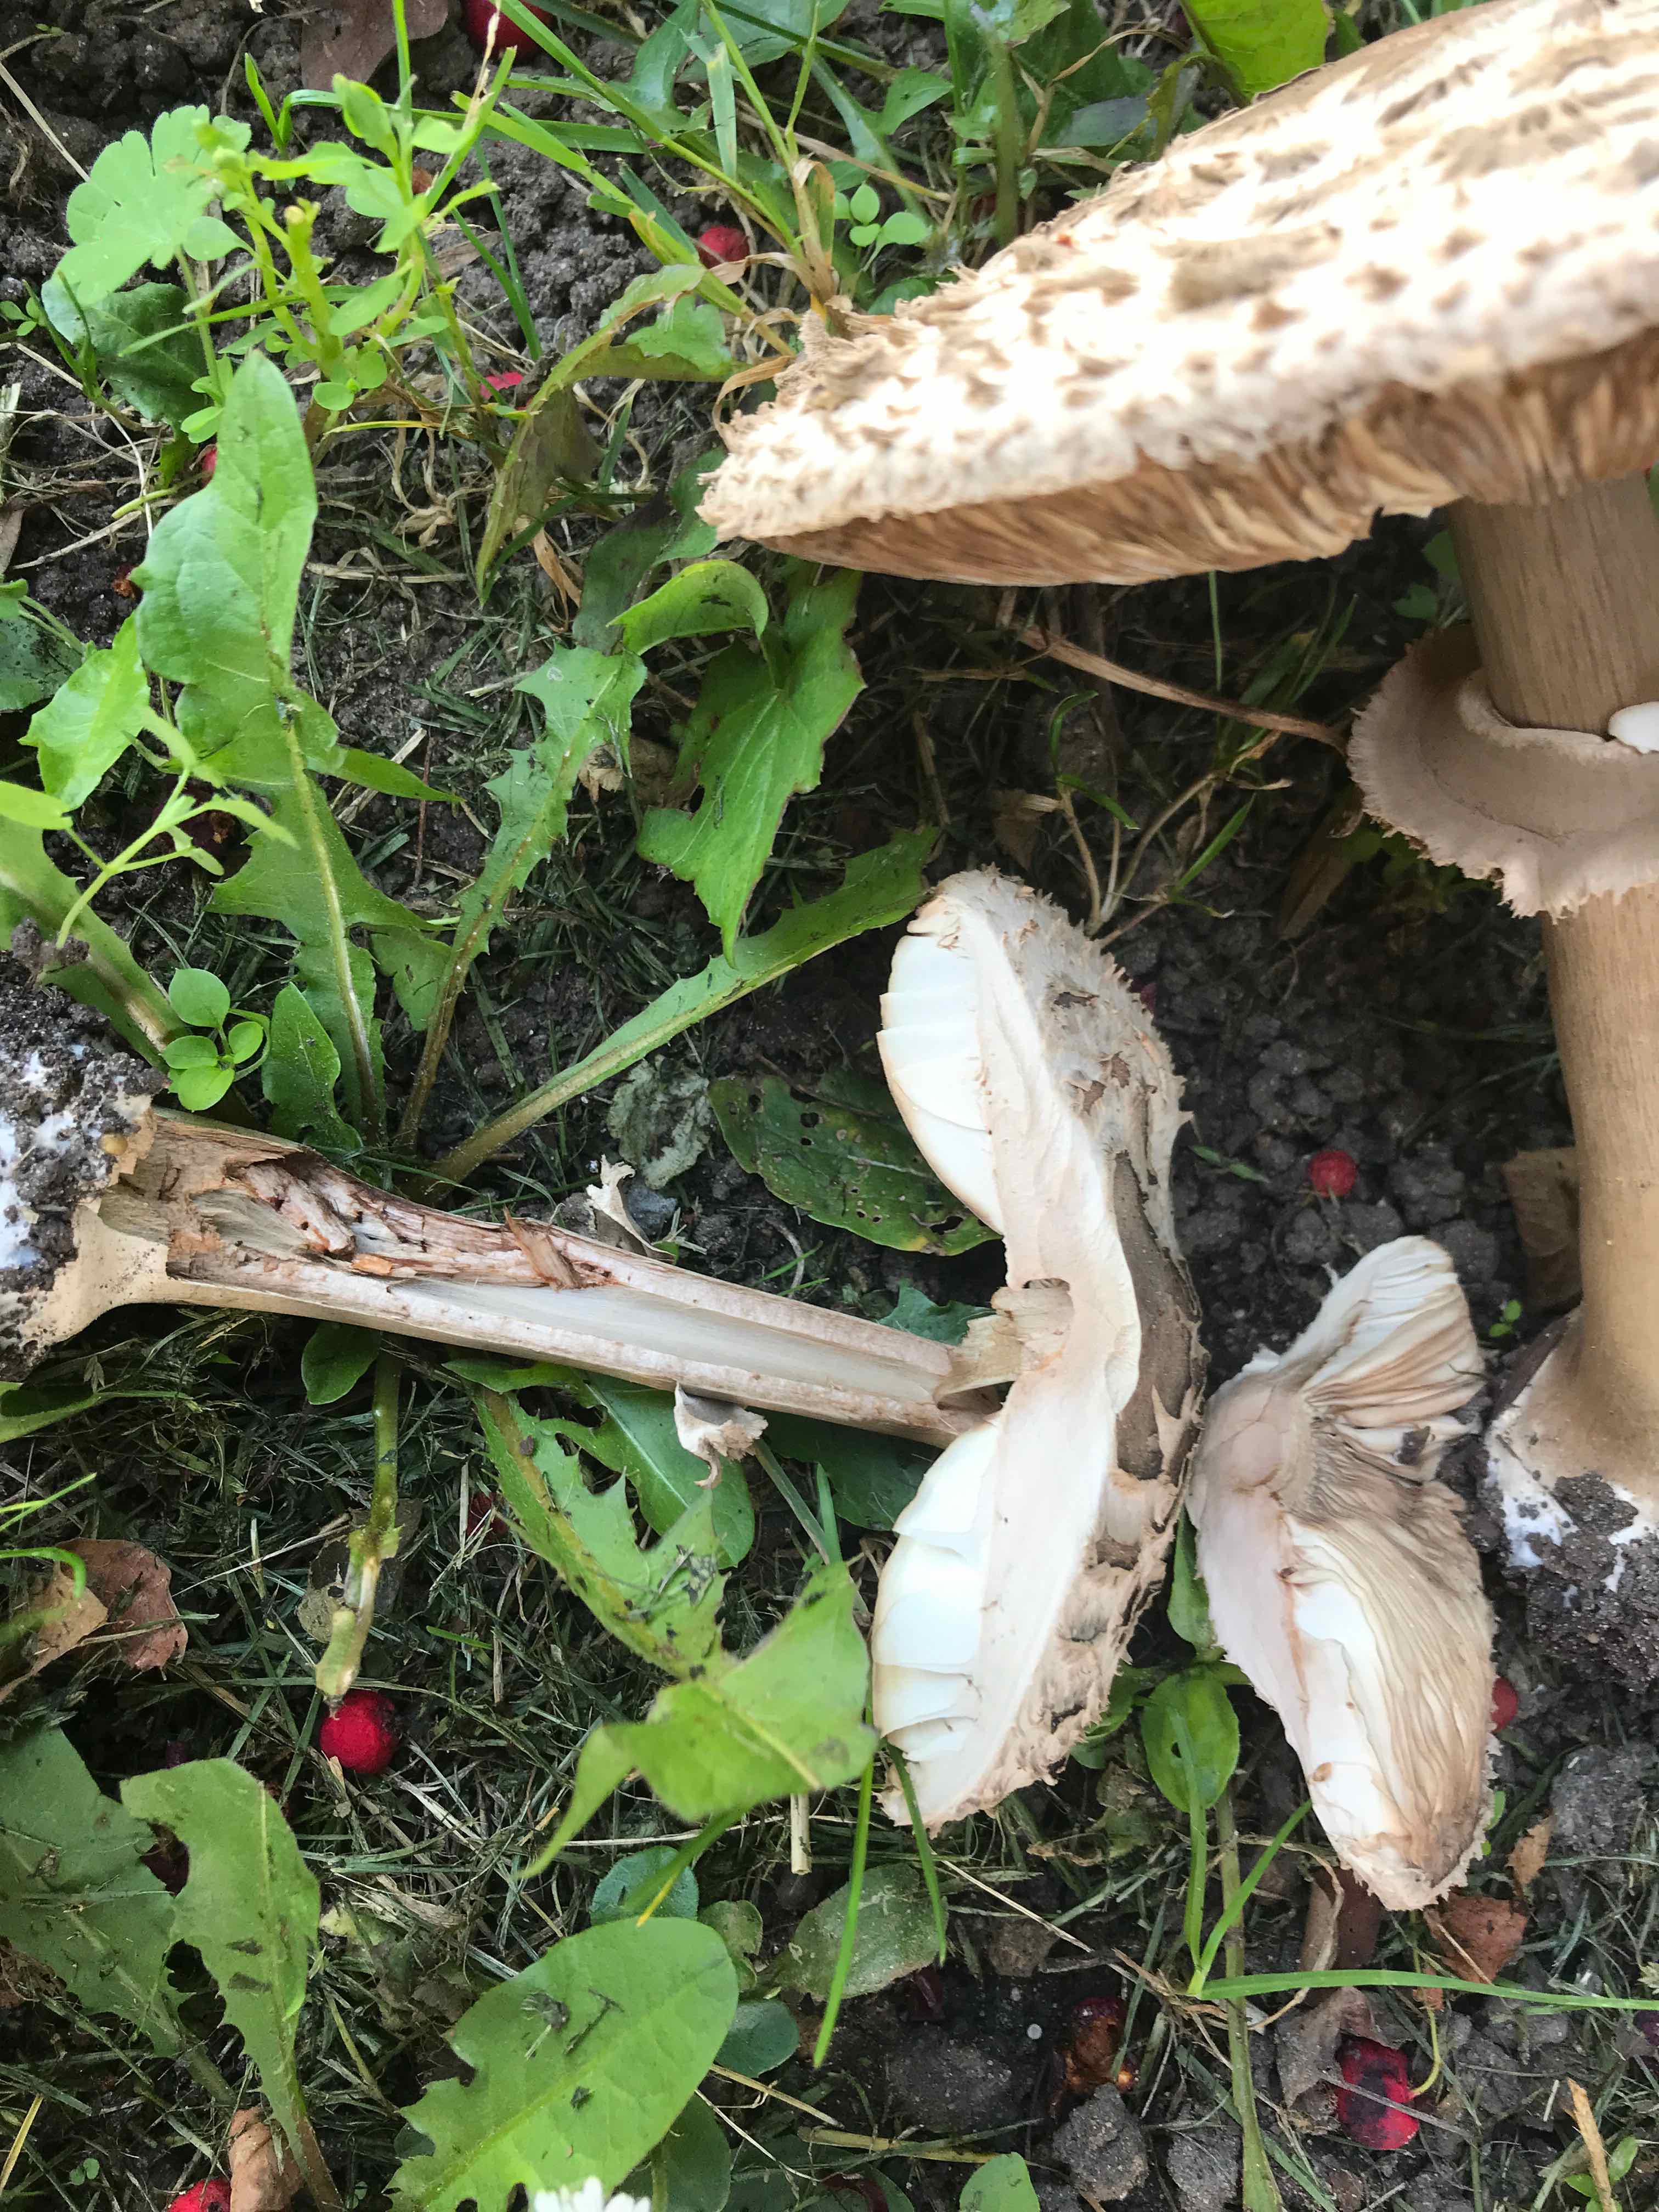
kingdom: Fungi
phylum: Basidiomycota
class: Agaricomycetes
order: Agaricales
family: Agaricaceae
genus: Chlorophyllum
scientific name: Chlorophyllum rhacodes
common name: ægte rabarberhat
